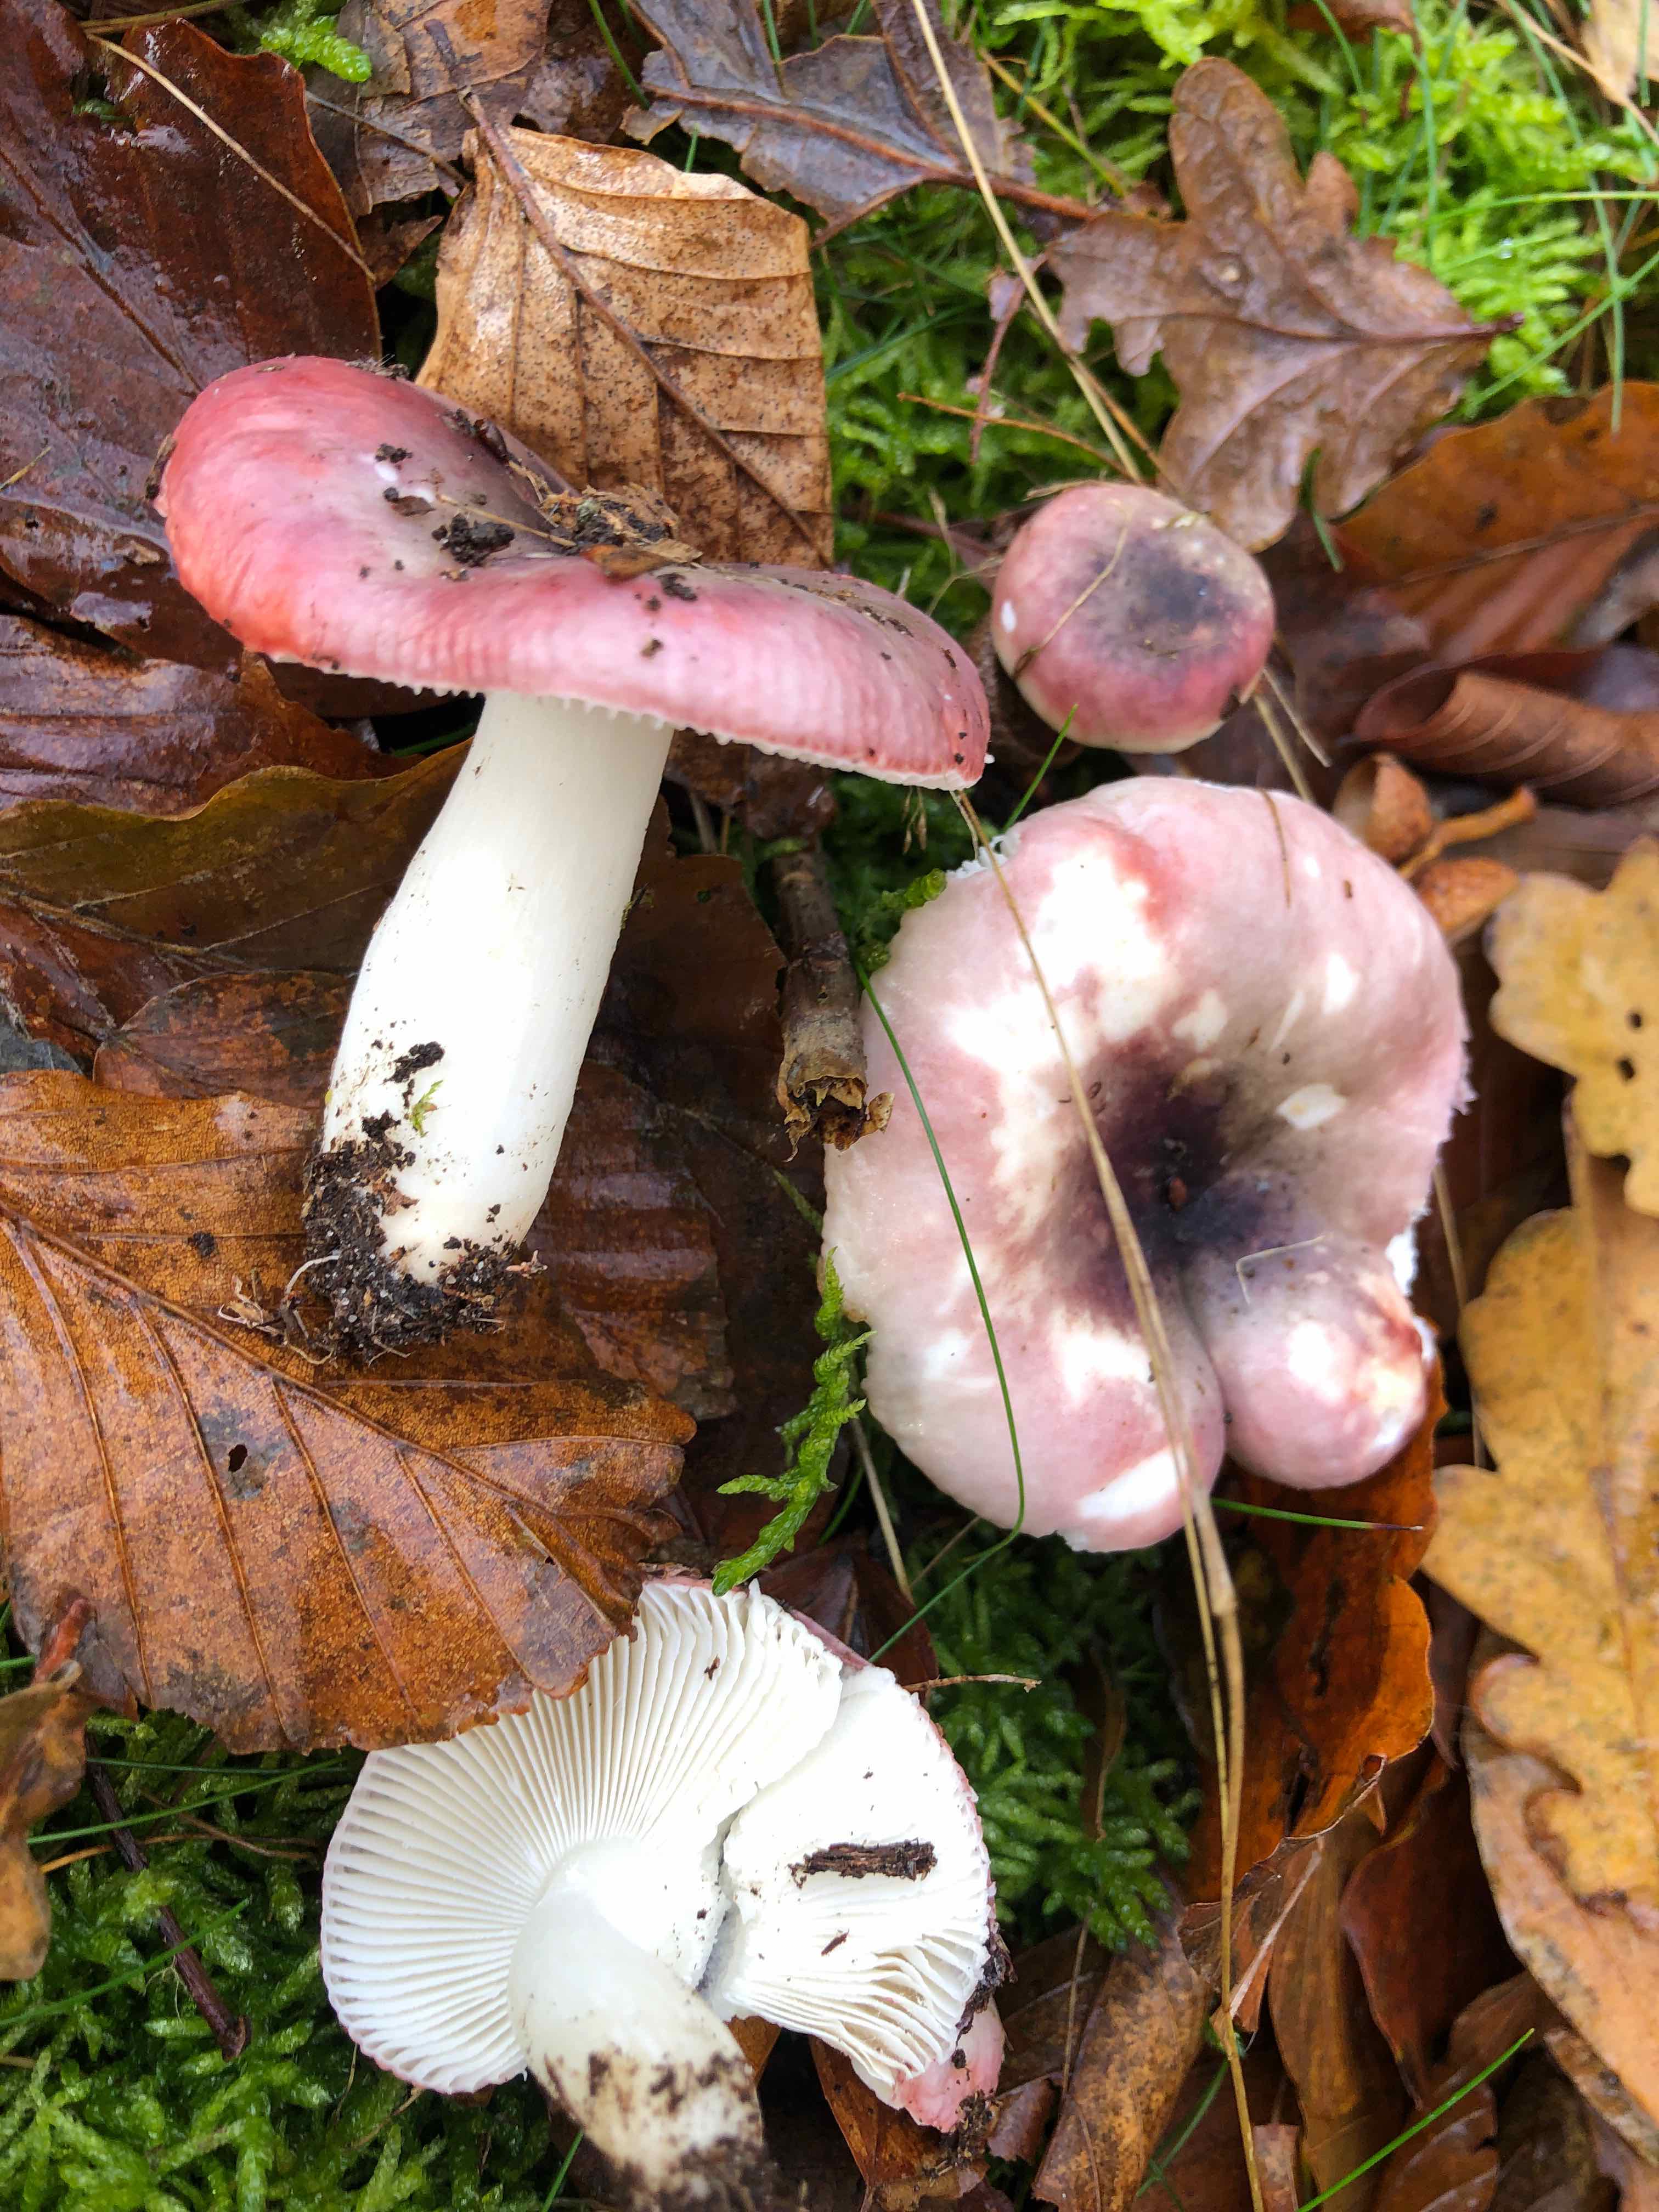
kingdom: Fungi
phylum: Basidiomycota
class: Agaricomycetes
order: Russulales
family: Russulaceae
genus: Russula
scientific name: Russula fragilis
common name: savbladet skørhat
